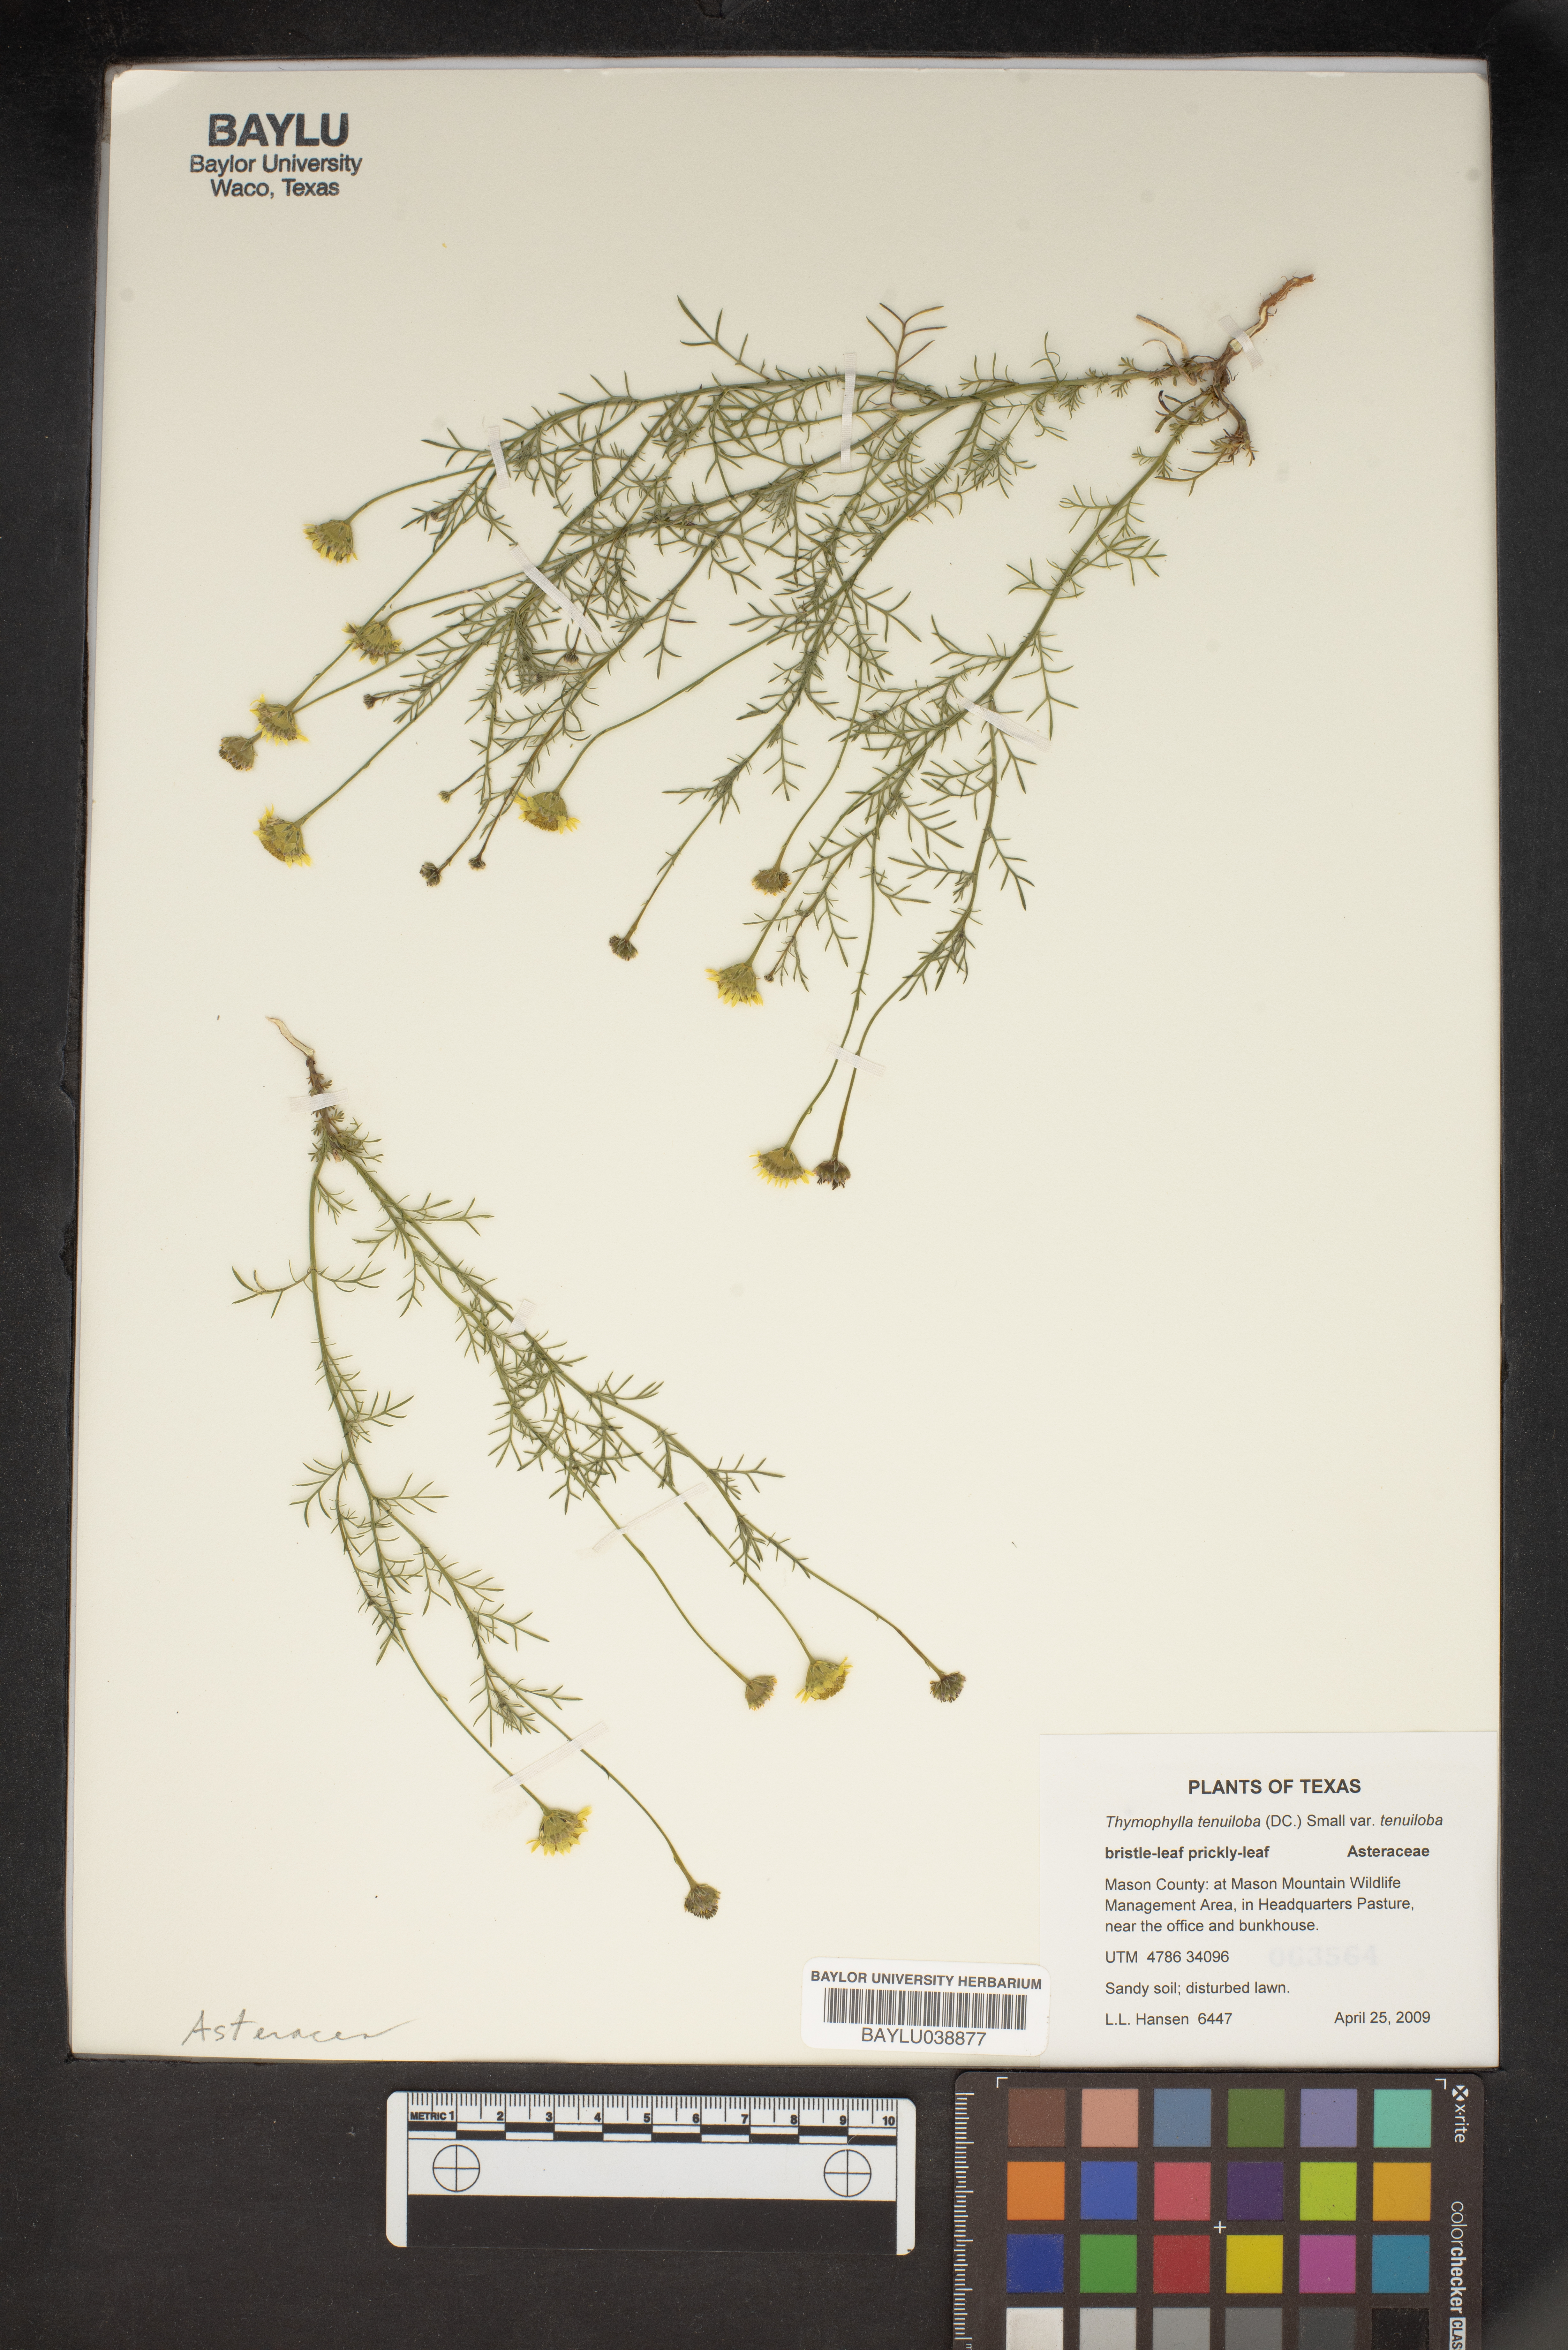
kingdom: Plantae
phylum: Tracheophyta
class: Magnoliopsida
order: Asterales
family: Asteraceae
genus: Thymophylla
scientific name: Thymophylla tenuiloba
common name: Dahlberg's daisy
